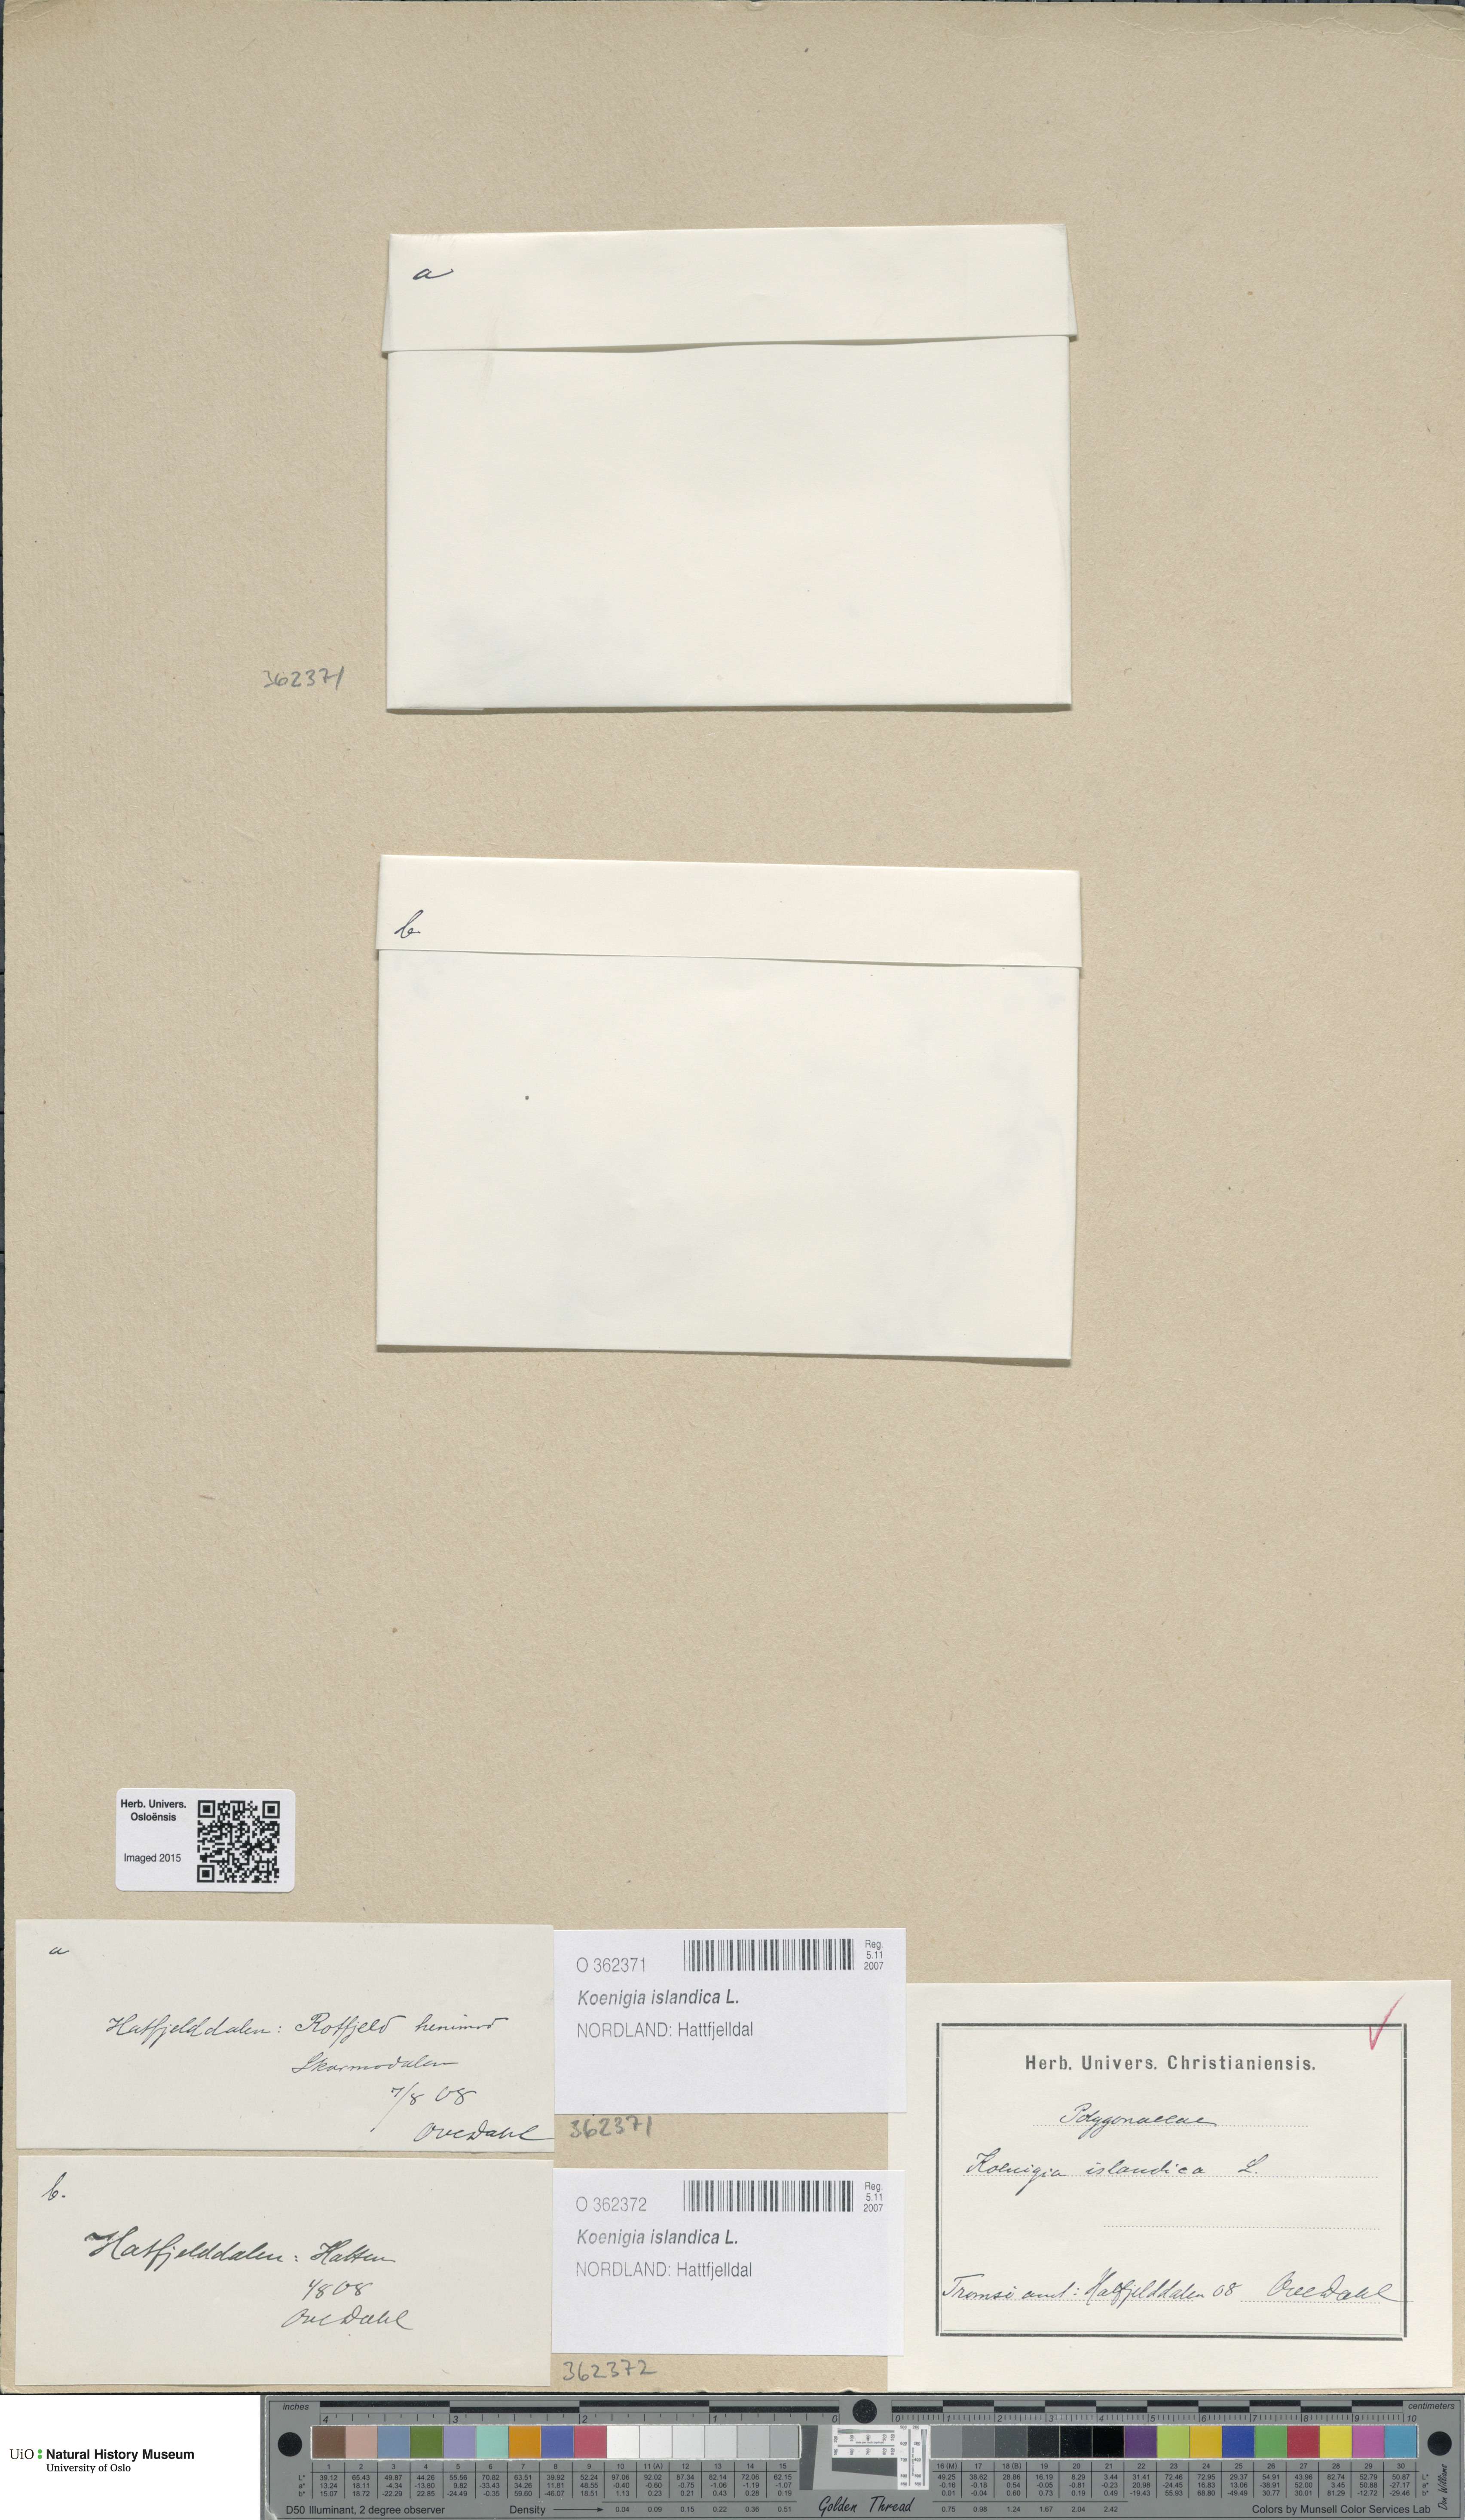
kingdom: Plantae
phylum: Tracheophyta
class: Magnoliopsida
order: Caryophyllales
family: Polygonaceae
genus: Koenigia
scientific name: Koenigia islandica
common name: Iceland-purslane
